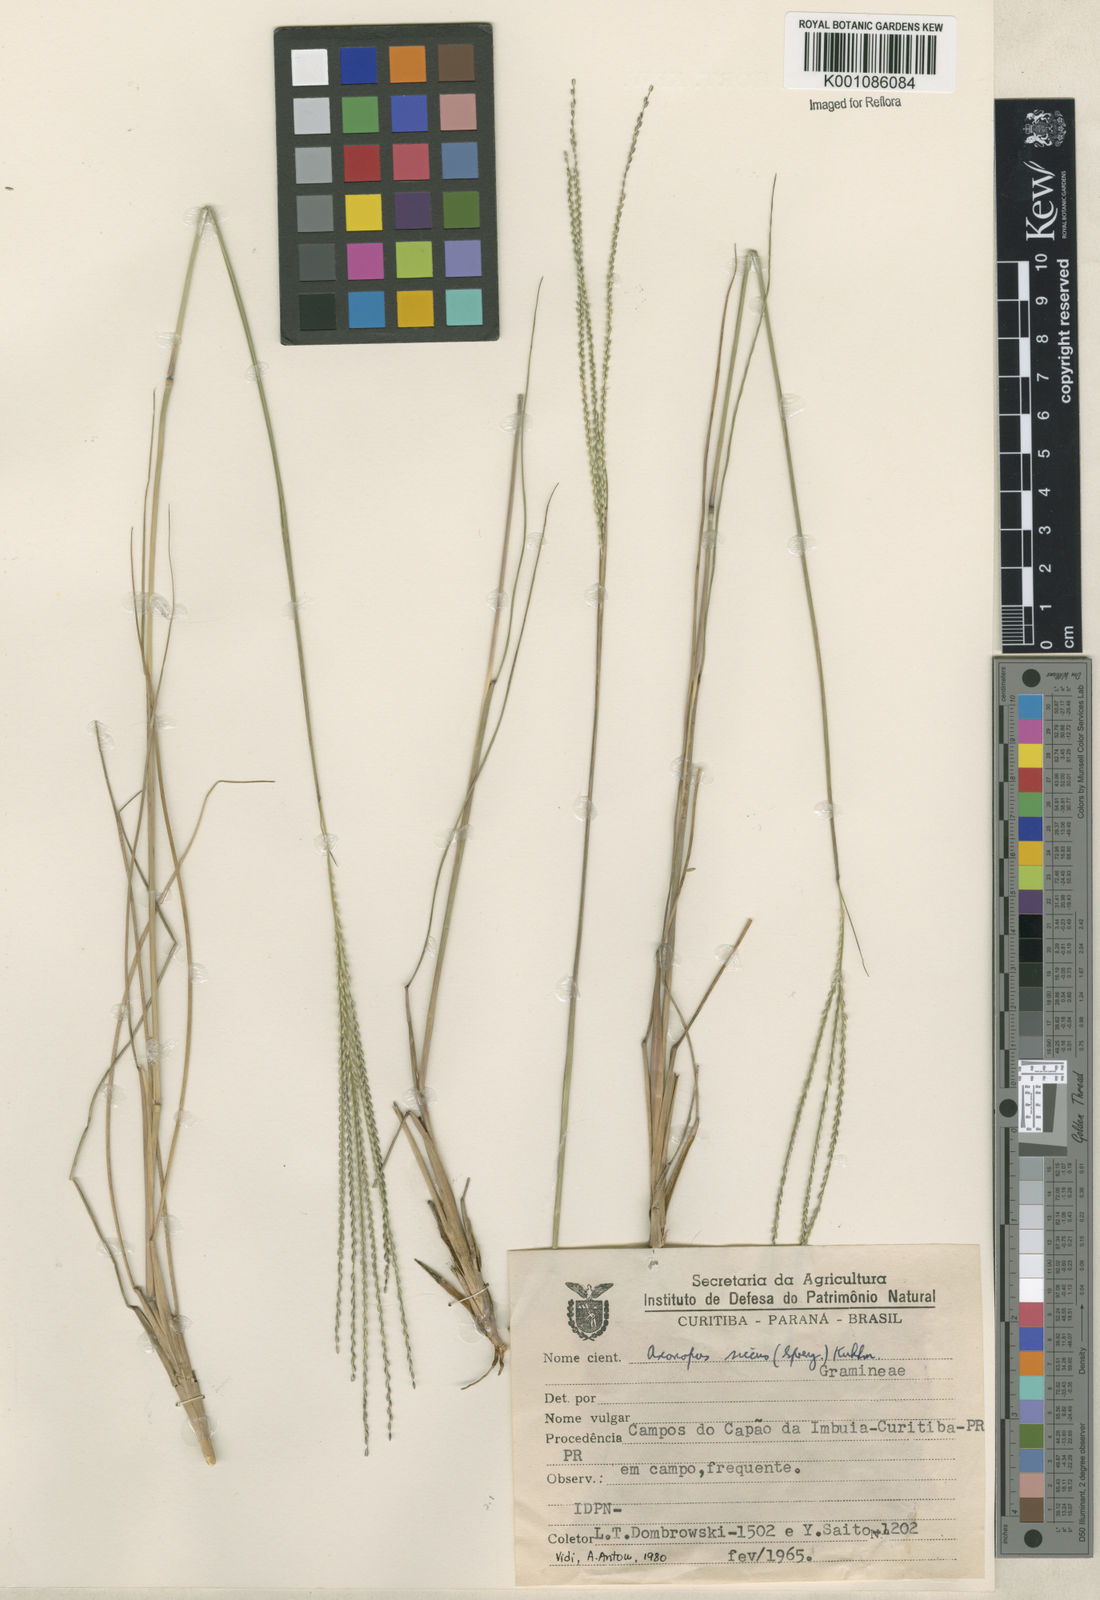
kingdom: Plantae
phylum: Tracheophyta
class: Liliopsida
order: Poales
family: Poaceae
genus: Axonopus
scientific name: Axonopus siccus
